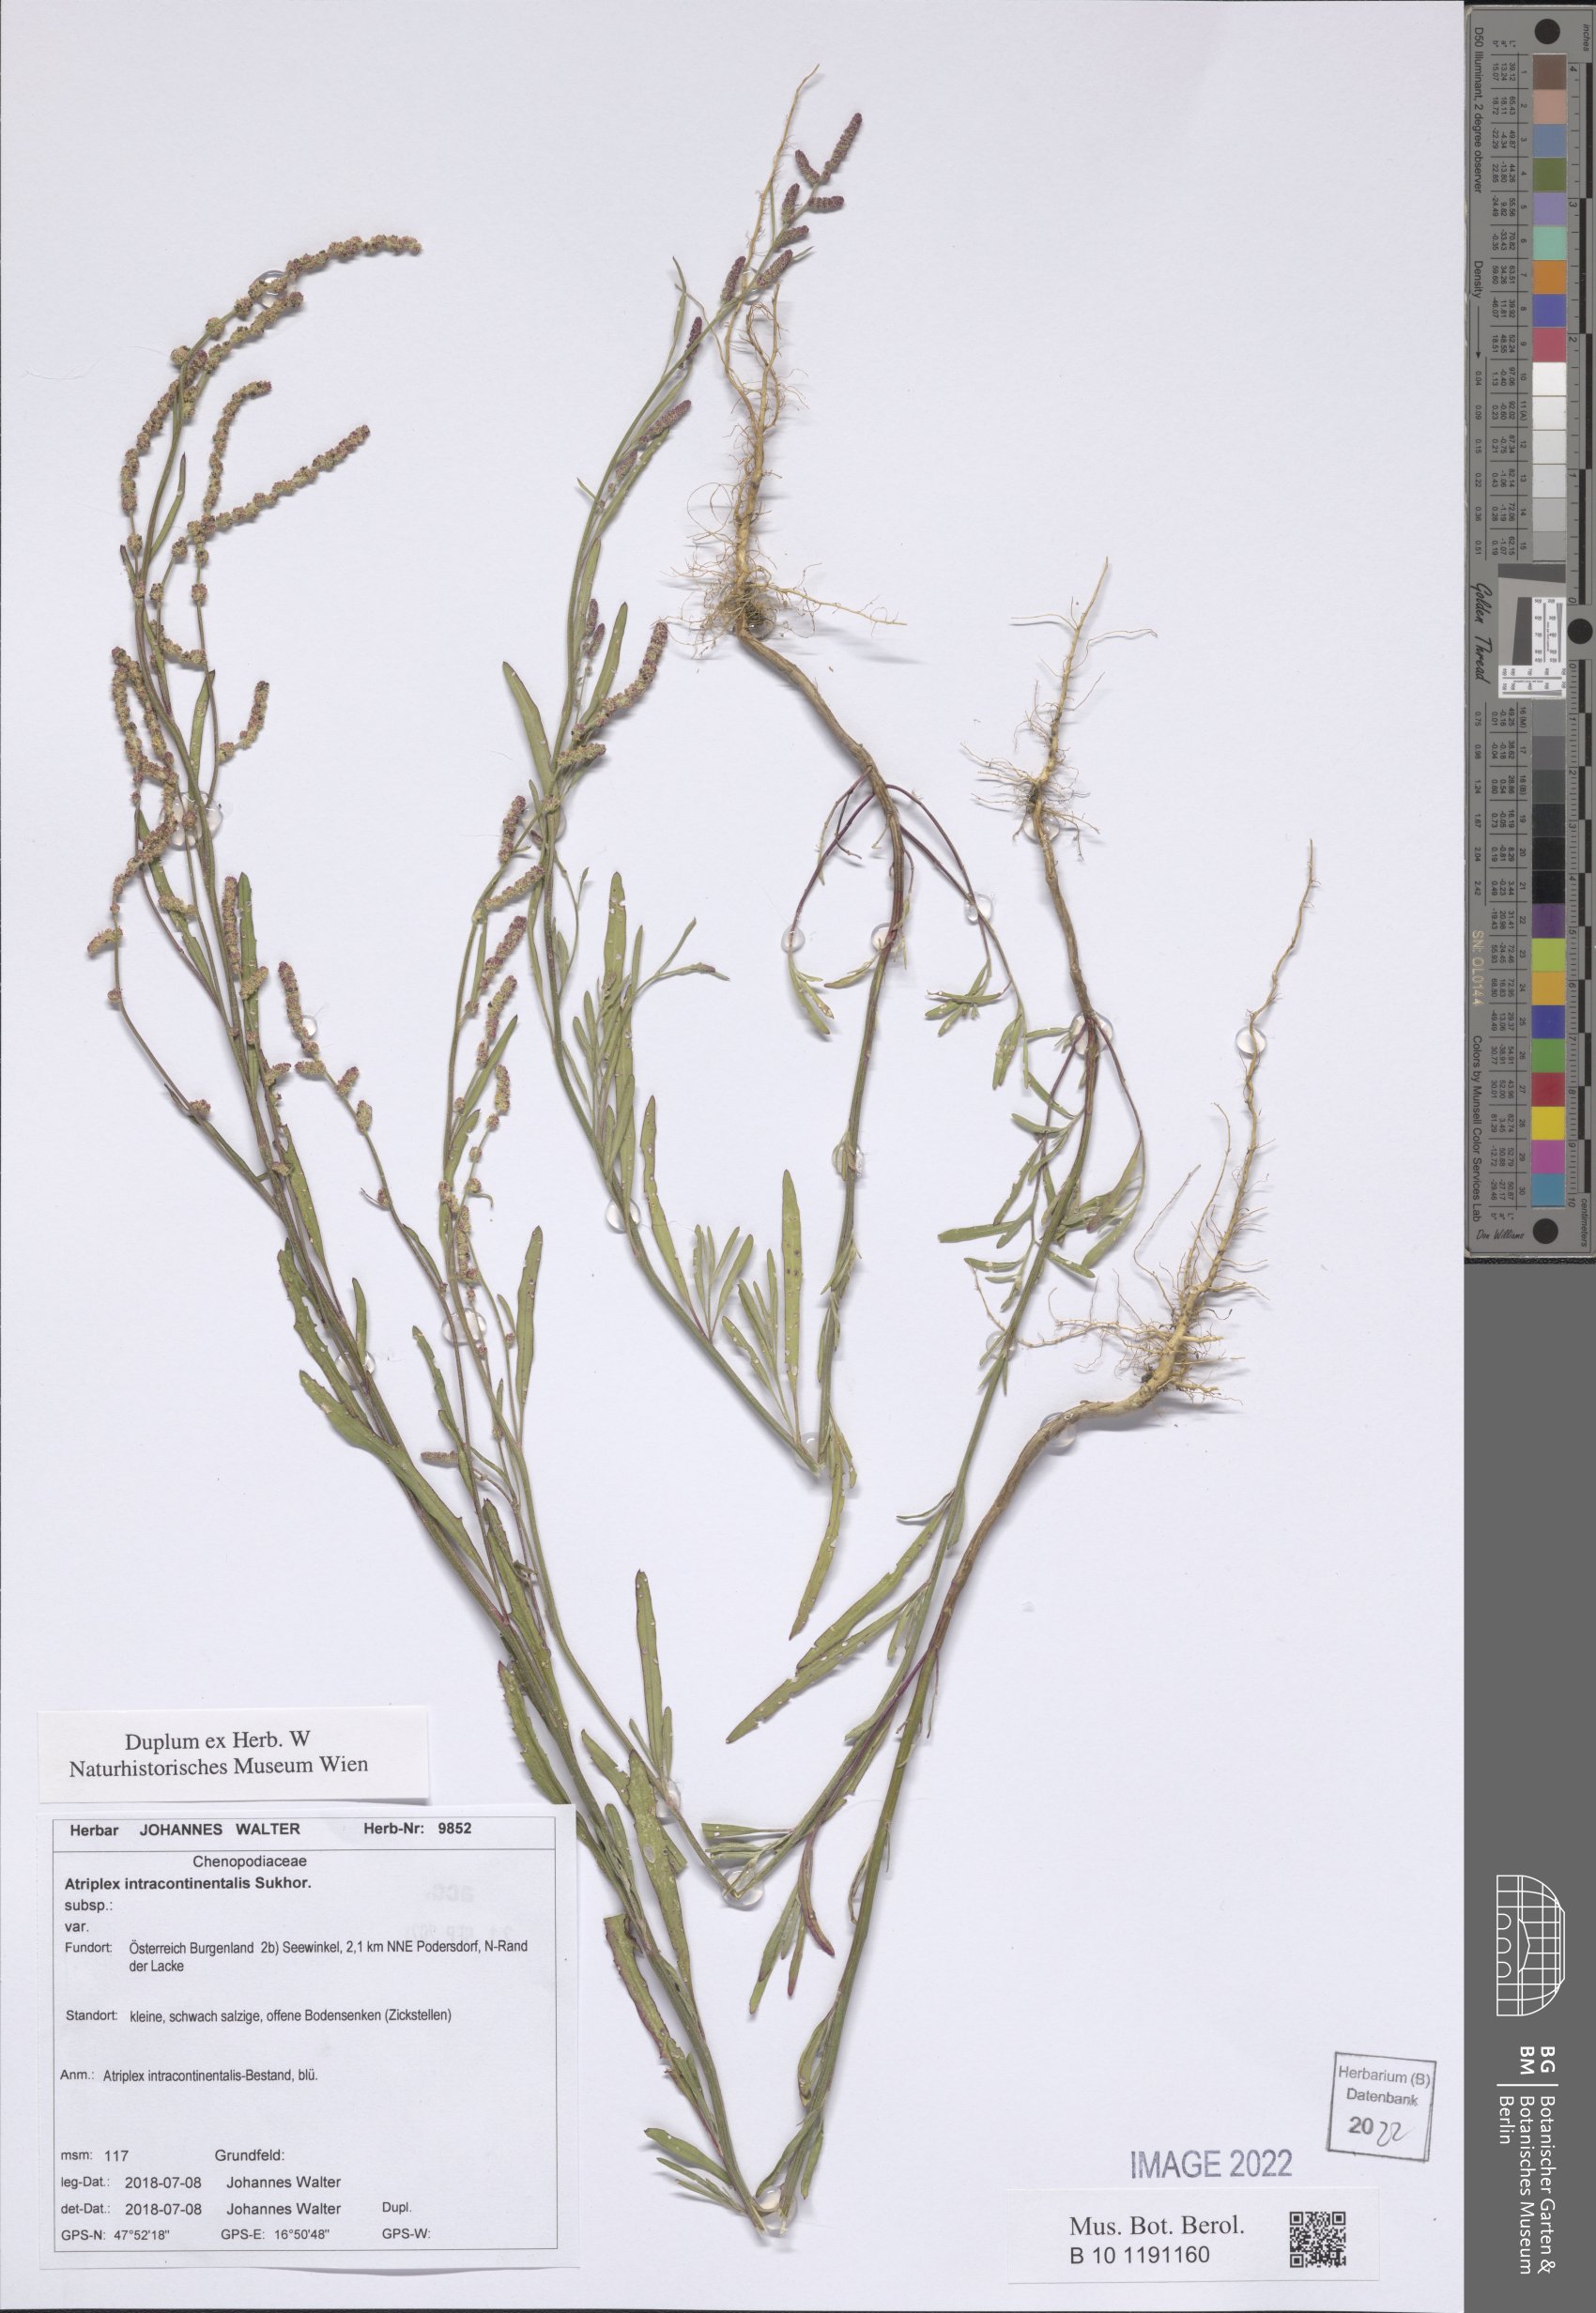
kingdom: Plantae
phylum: Tracheophyta
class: Magnoliopsida
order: Caryophyllales
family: Amaranthaceae
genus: Atriplex
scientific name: Atriplex intracontinentalis
